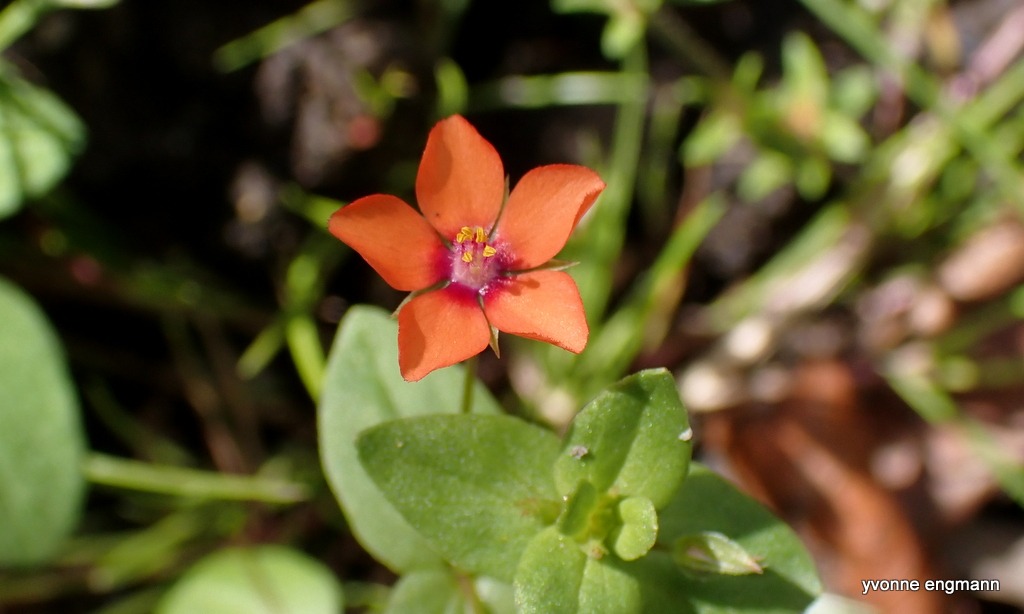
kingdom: Plantae
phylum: Tracheophyta
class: Magnoliopsida
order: Ericales
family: Primulaceae
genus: Lysimachia
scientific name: Lysimachia arvensis
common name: Rød arve
